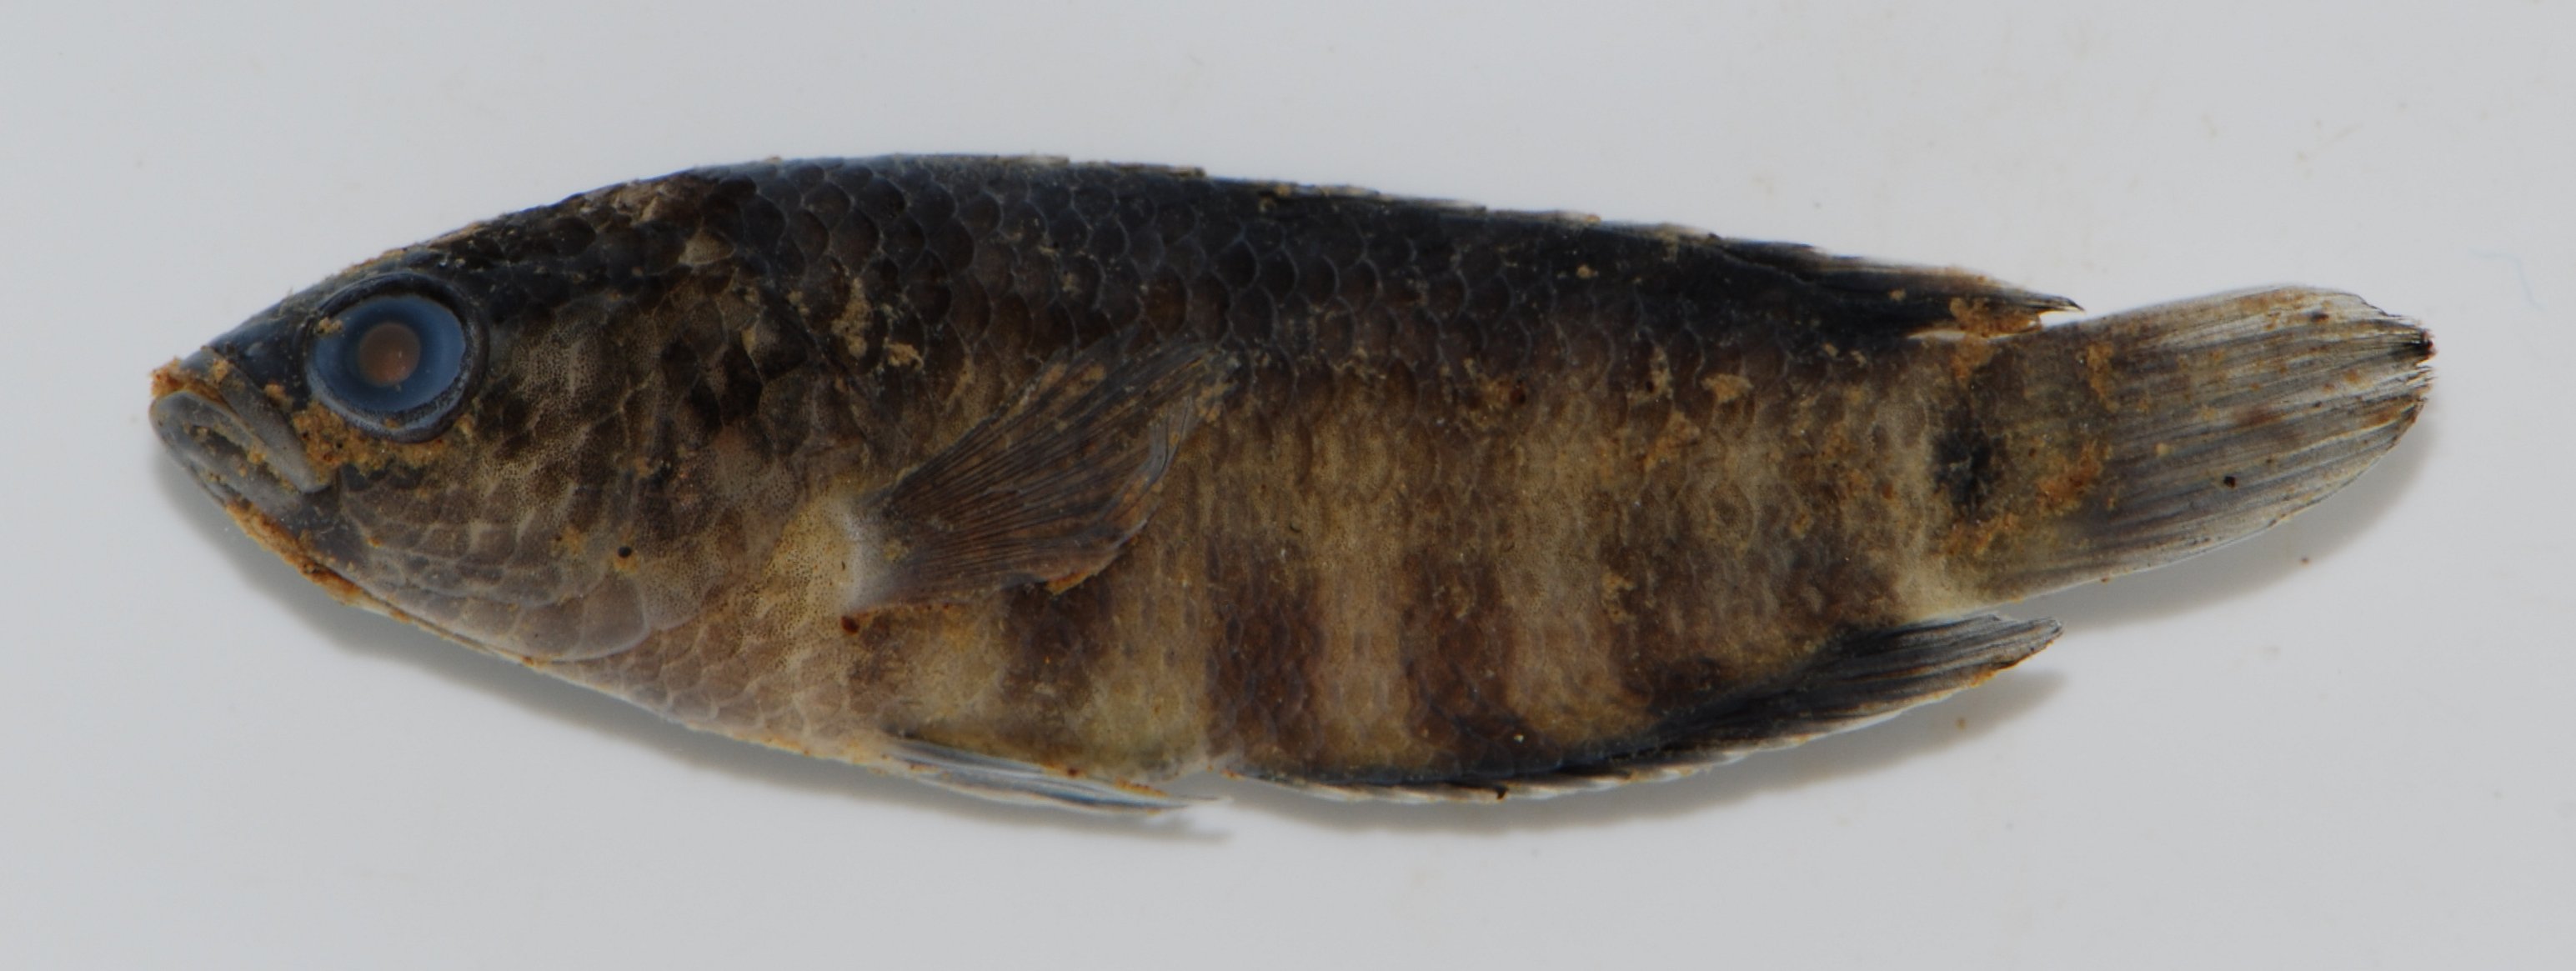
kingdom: Animalia
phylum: Chordata
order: Perciformes
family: Anabantidae
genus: Microctenopoma
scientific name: Microctenopoma nanum
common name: Dwarf climbing perch
